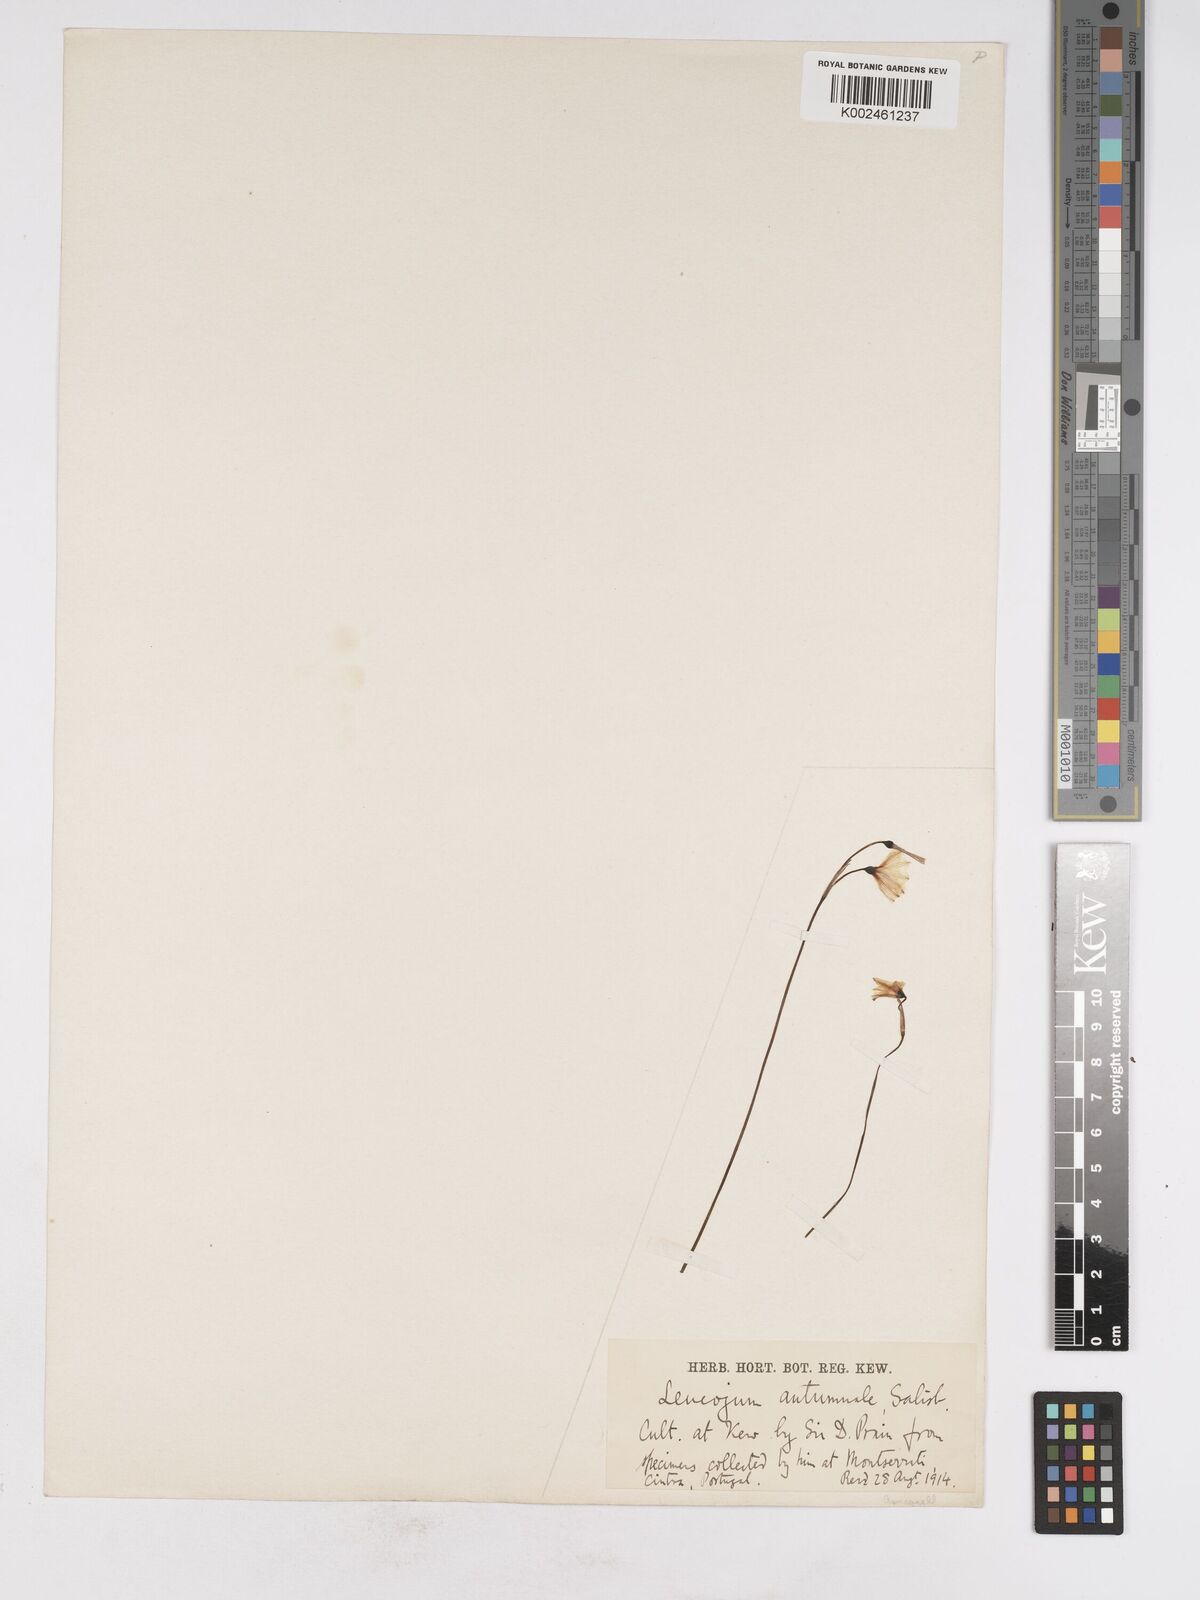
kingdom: Plantae
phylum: Tracheophyta
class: Liliopsida
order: Asparagales
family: Amaryllidaceae
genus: Acis
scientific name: Acis autumnalis
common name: Autumn snowflake
